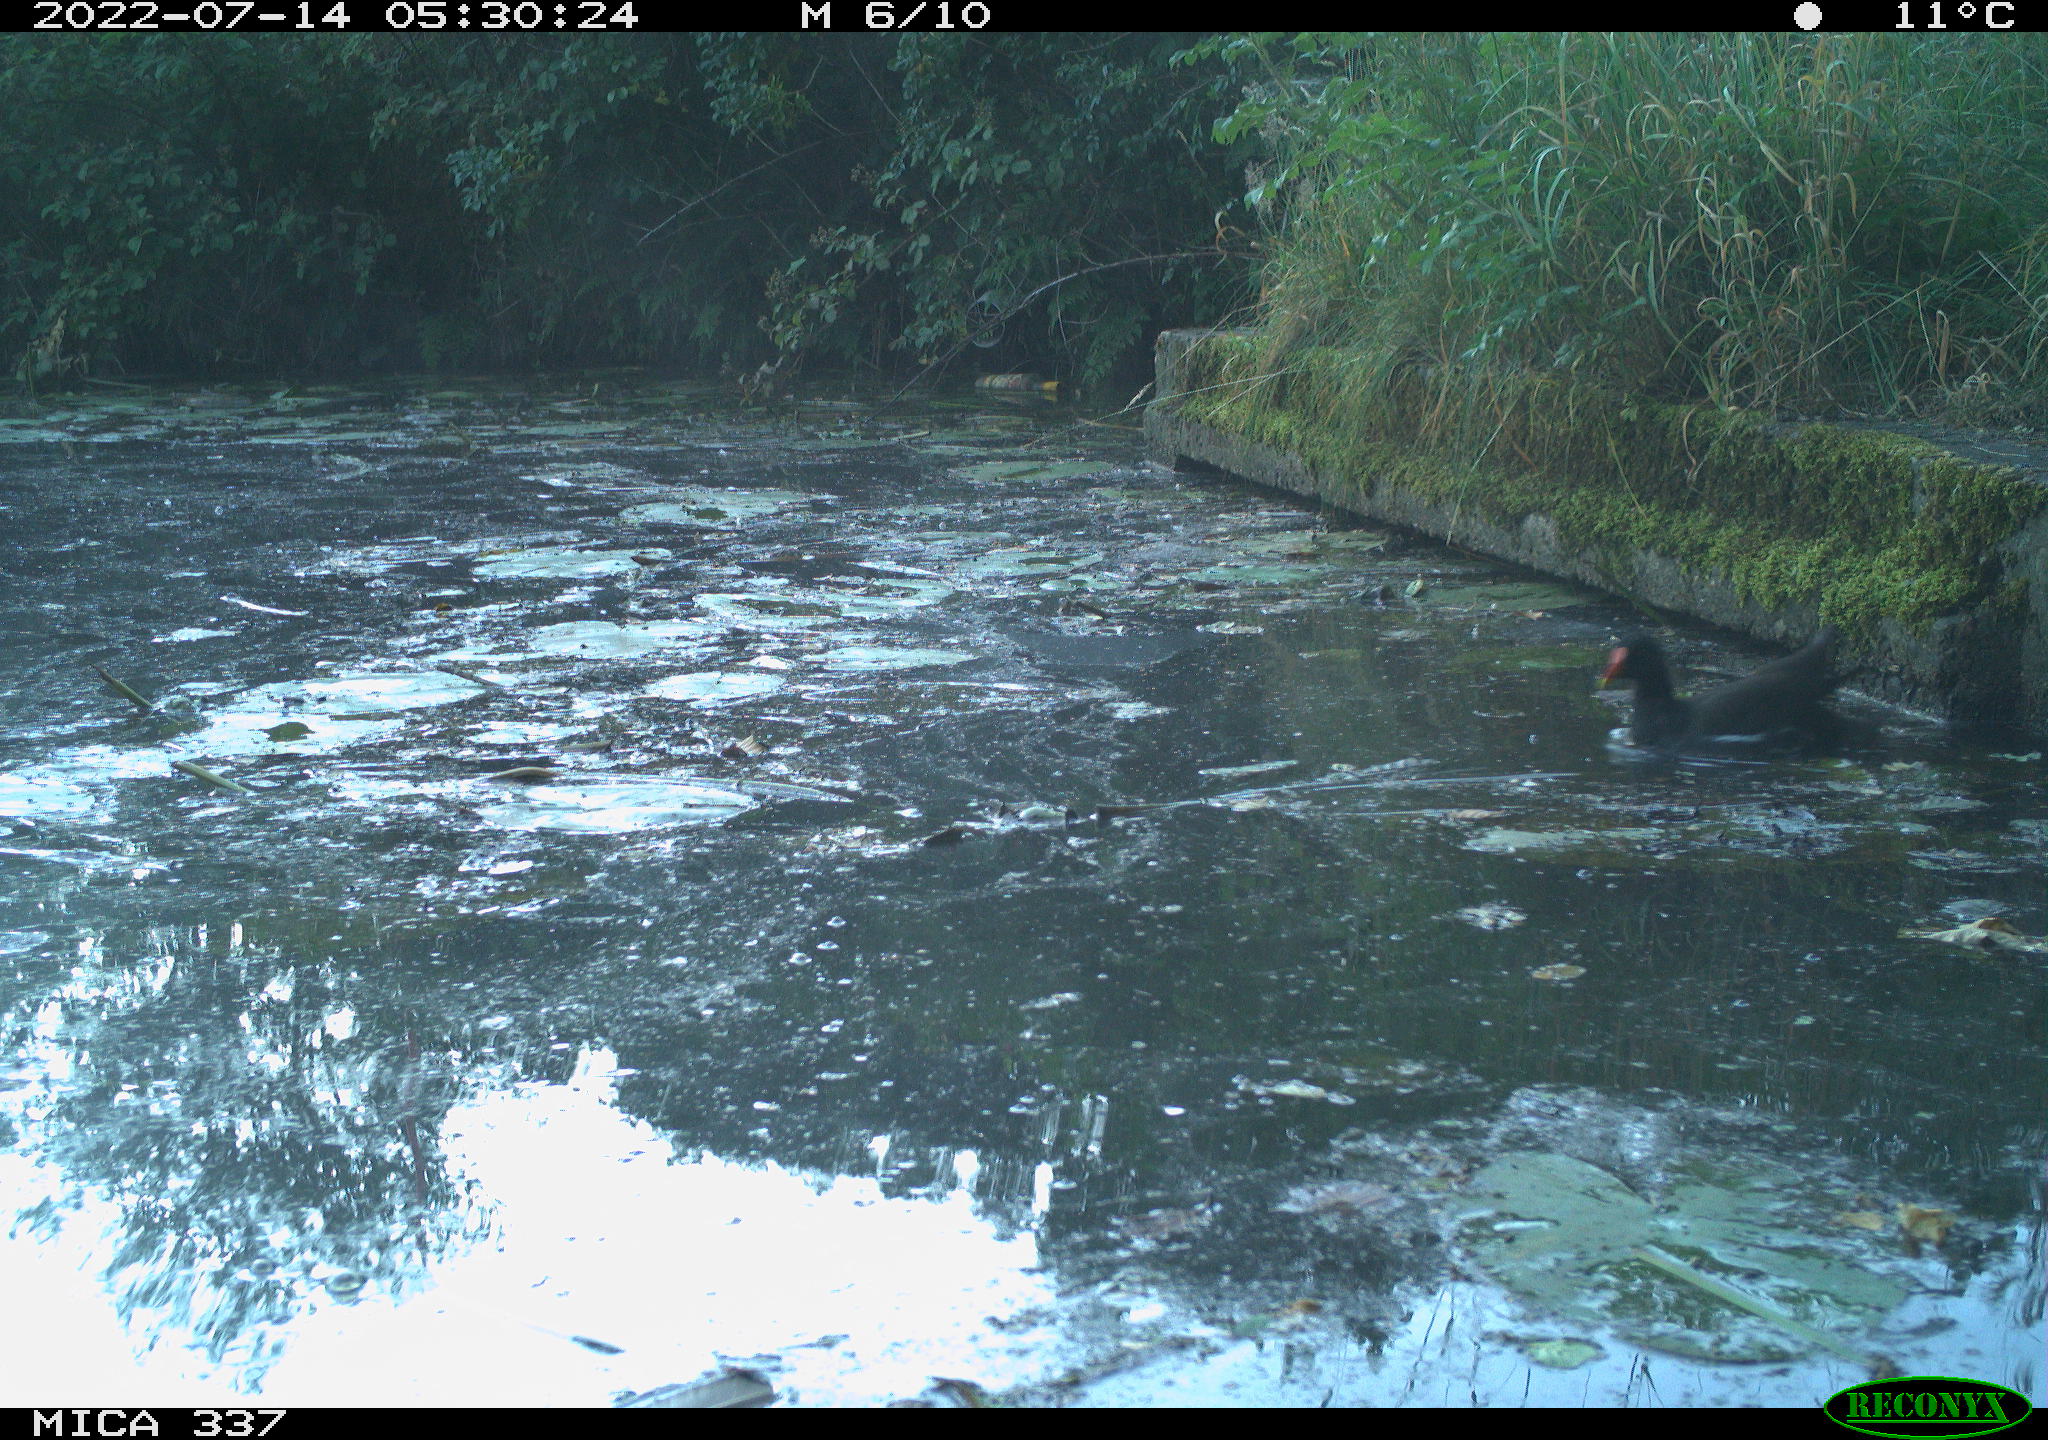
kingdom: Animalia
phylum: Chordata
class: Aves
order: Gruiformes
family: Rallidae
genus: Gallinula
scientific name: Gallinula chloropus
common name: Common moorhen
